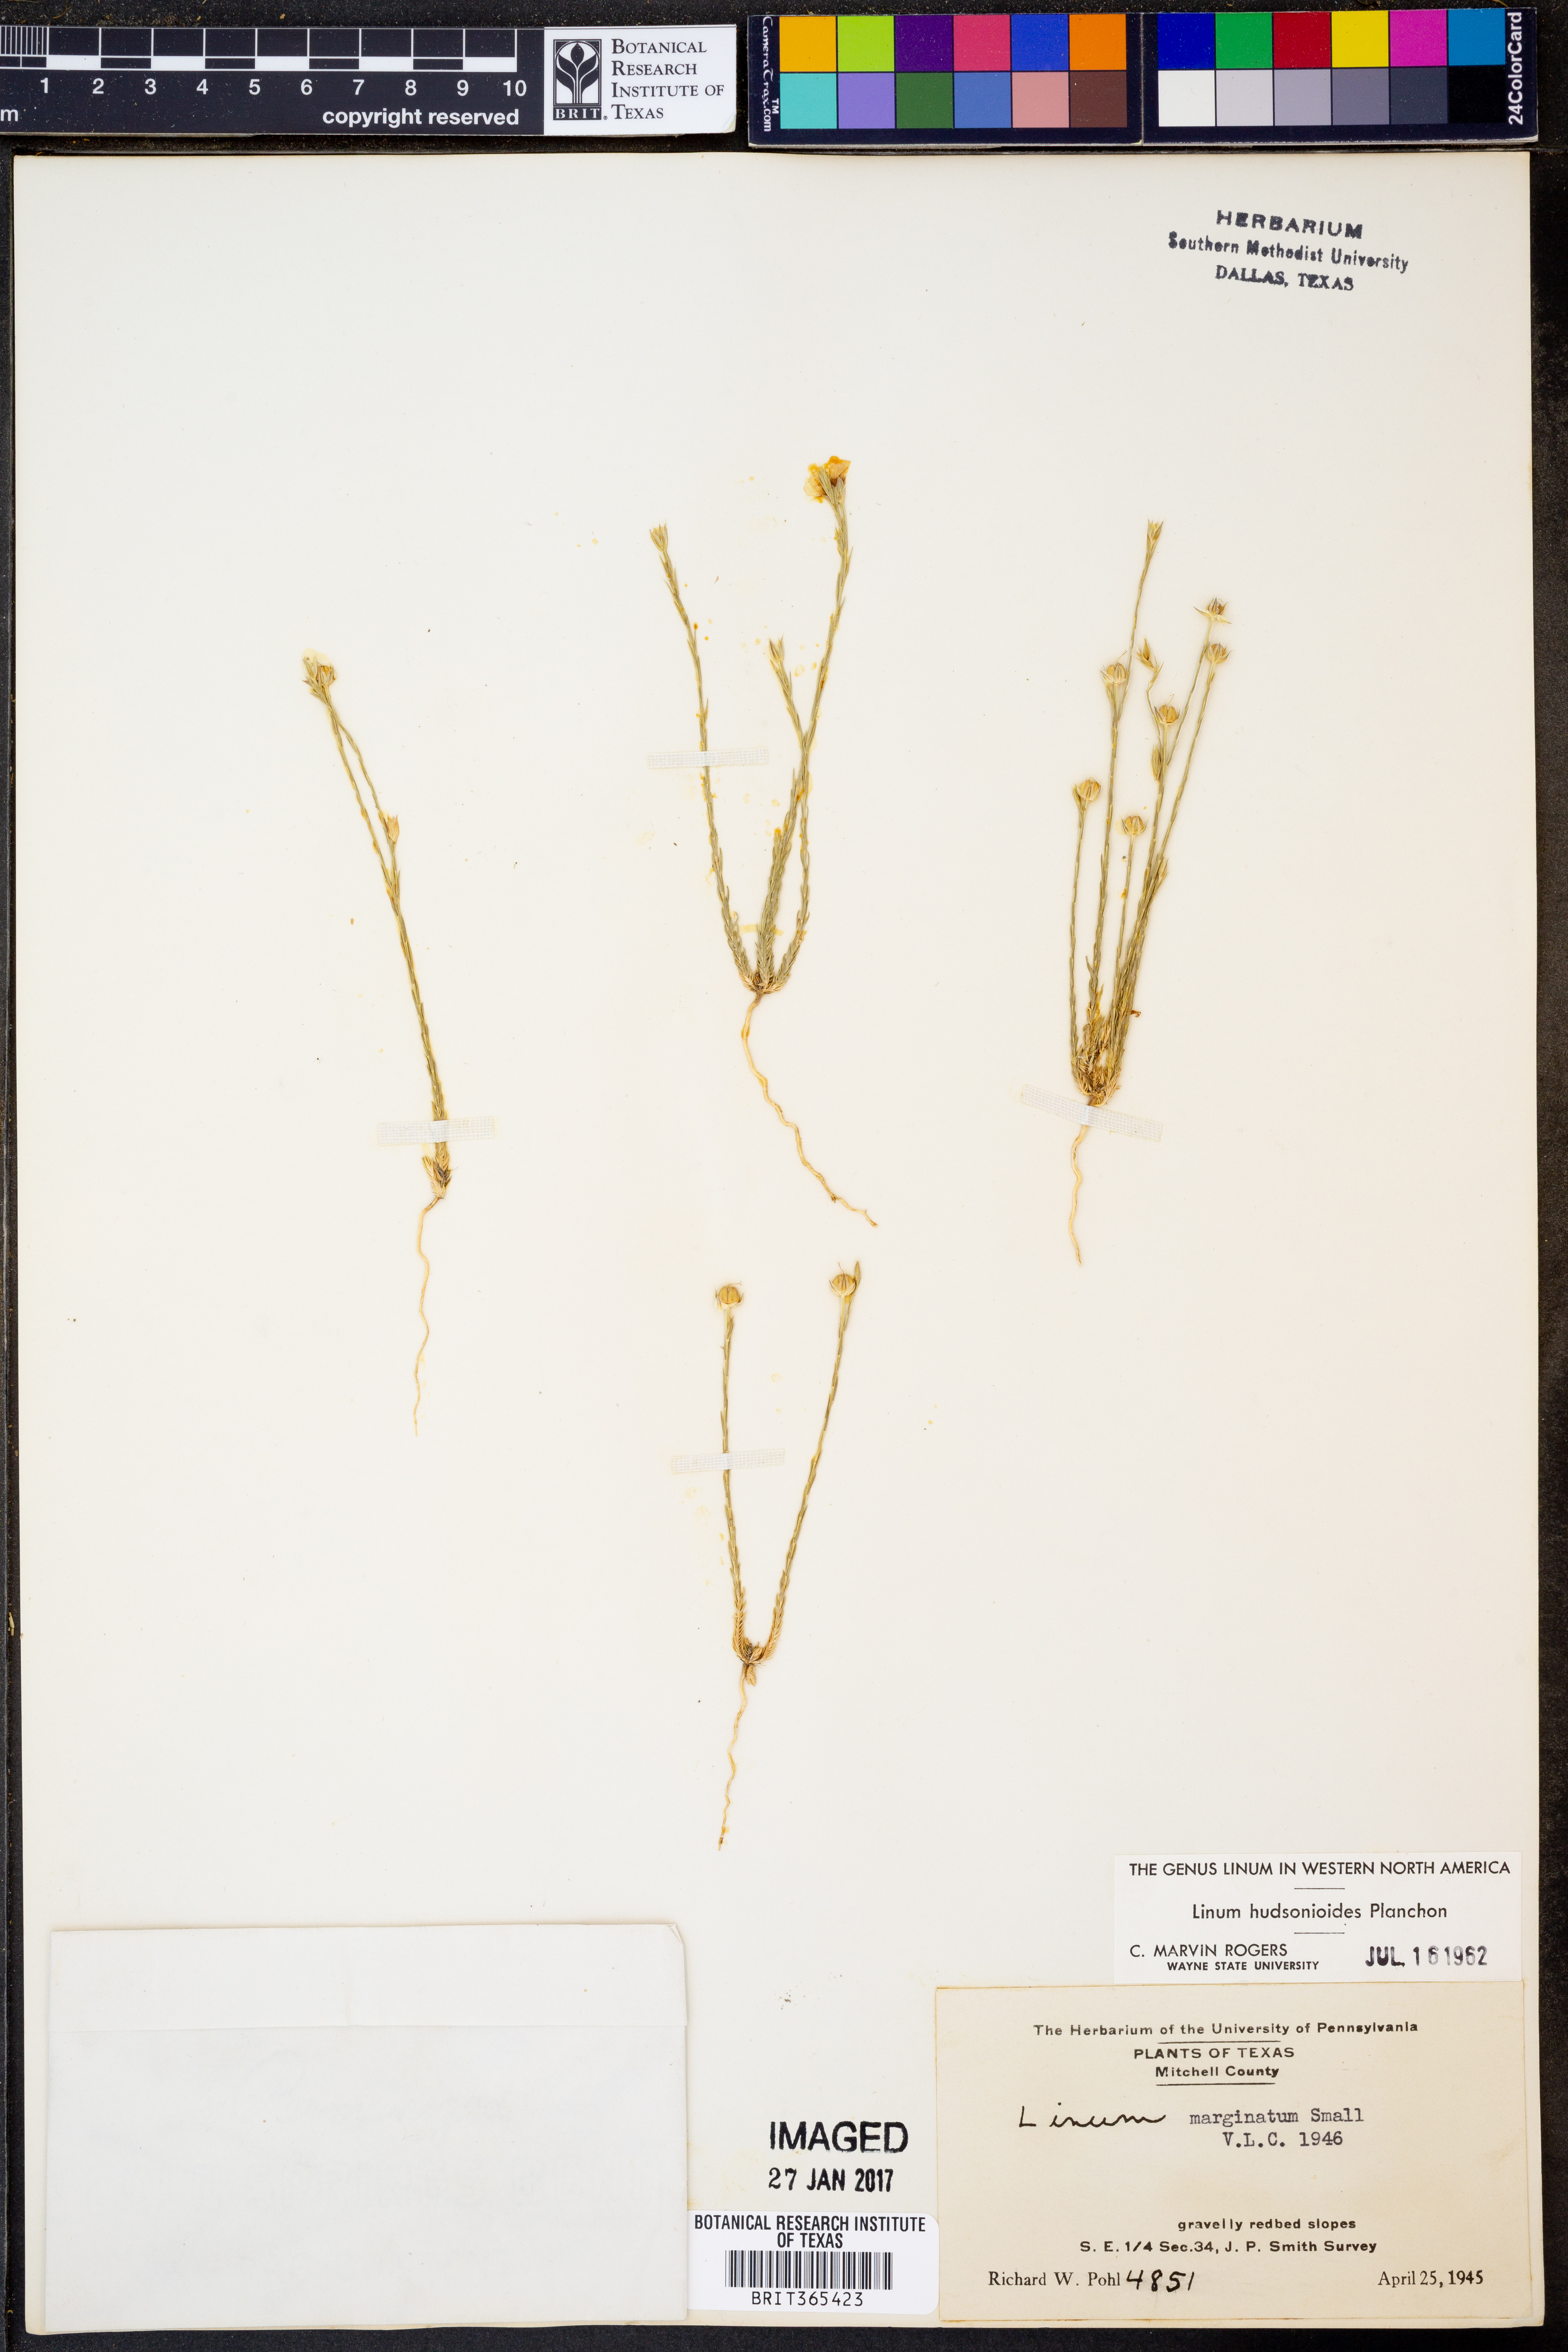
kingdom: Plantae
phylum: Tracheophyta
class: Magnoliopsida
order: Malpighiales
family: Linaceae
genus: Linum
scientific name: Linum hudsonioides
